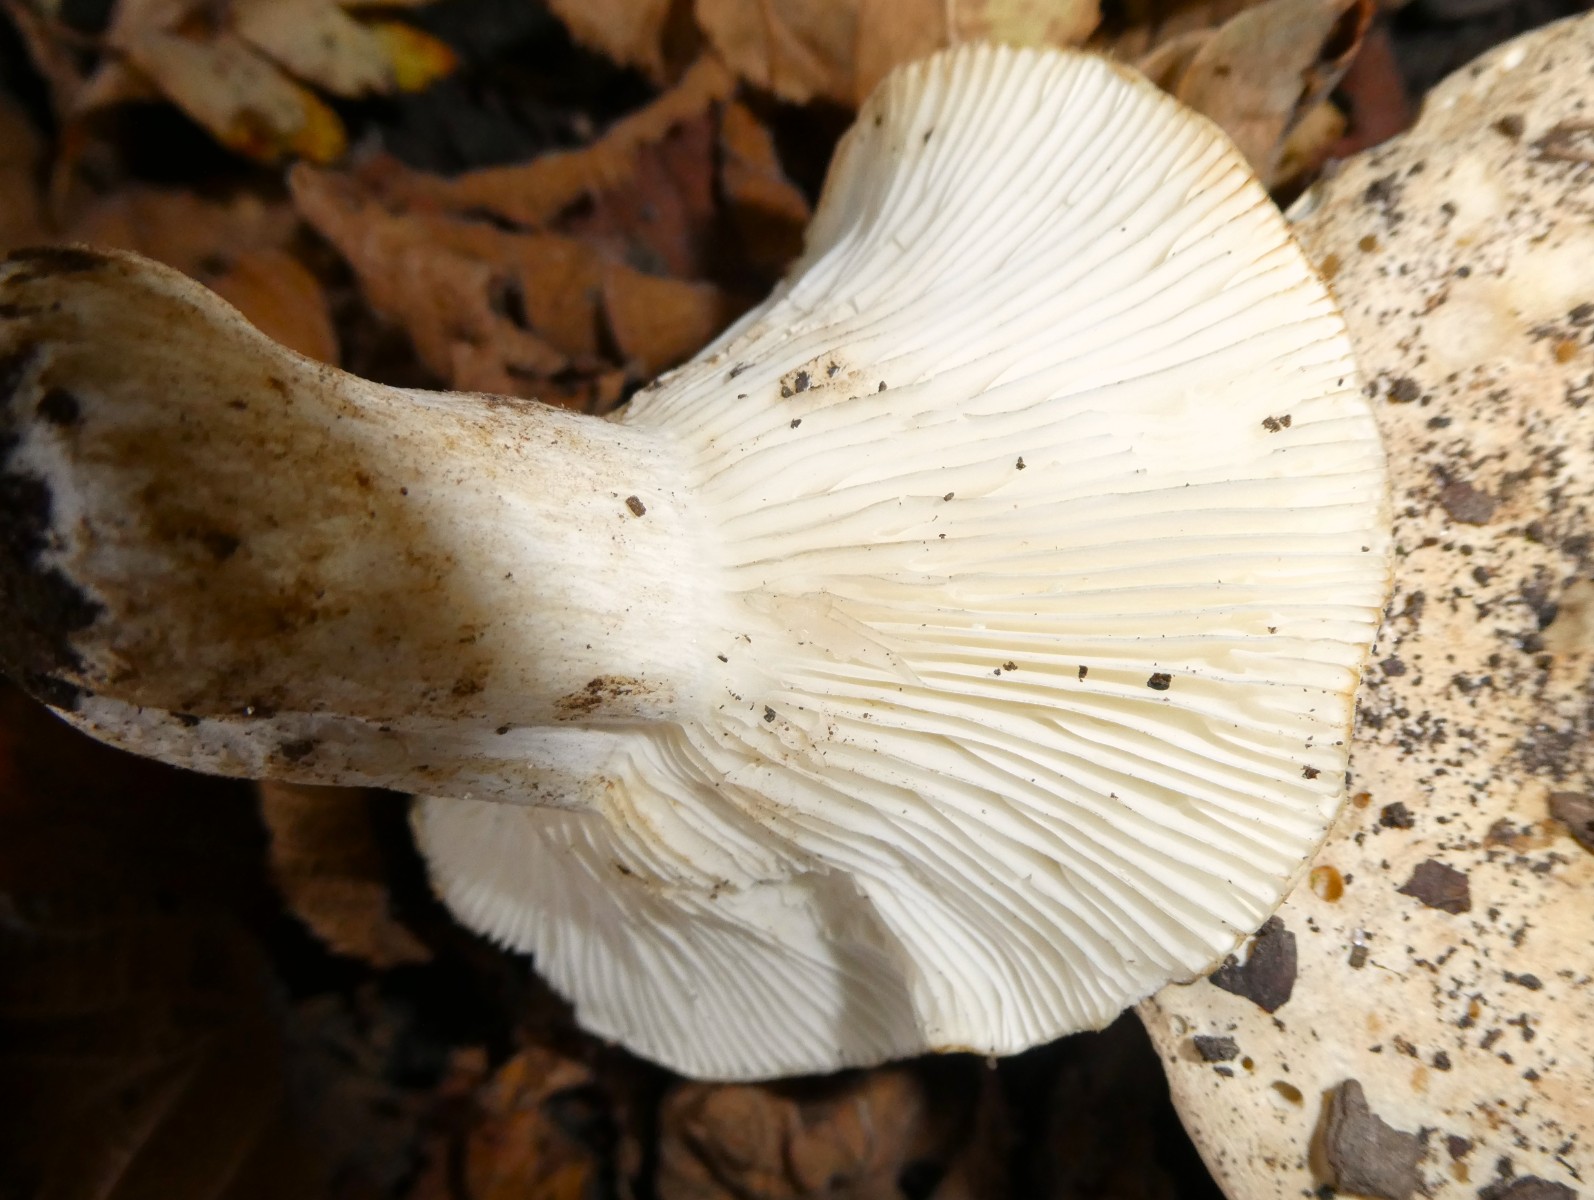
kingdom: Fungi
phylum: Basidiomycota
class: Agaricomycetes
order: Russulales
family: Russulaceae
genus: Russula
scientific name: Russula delica
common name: almindelig tragt-skørhat
